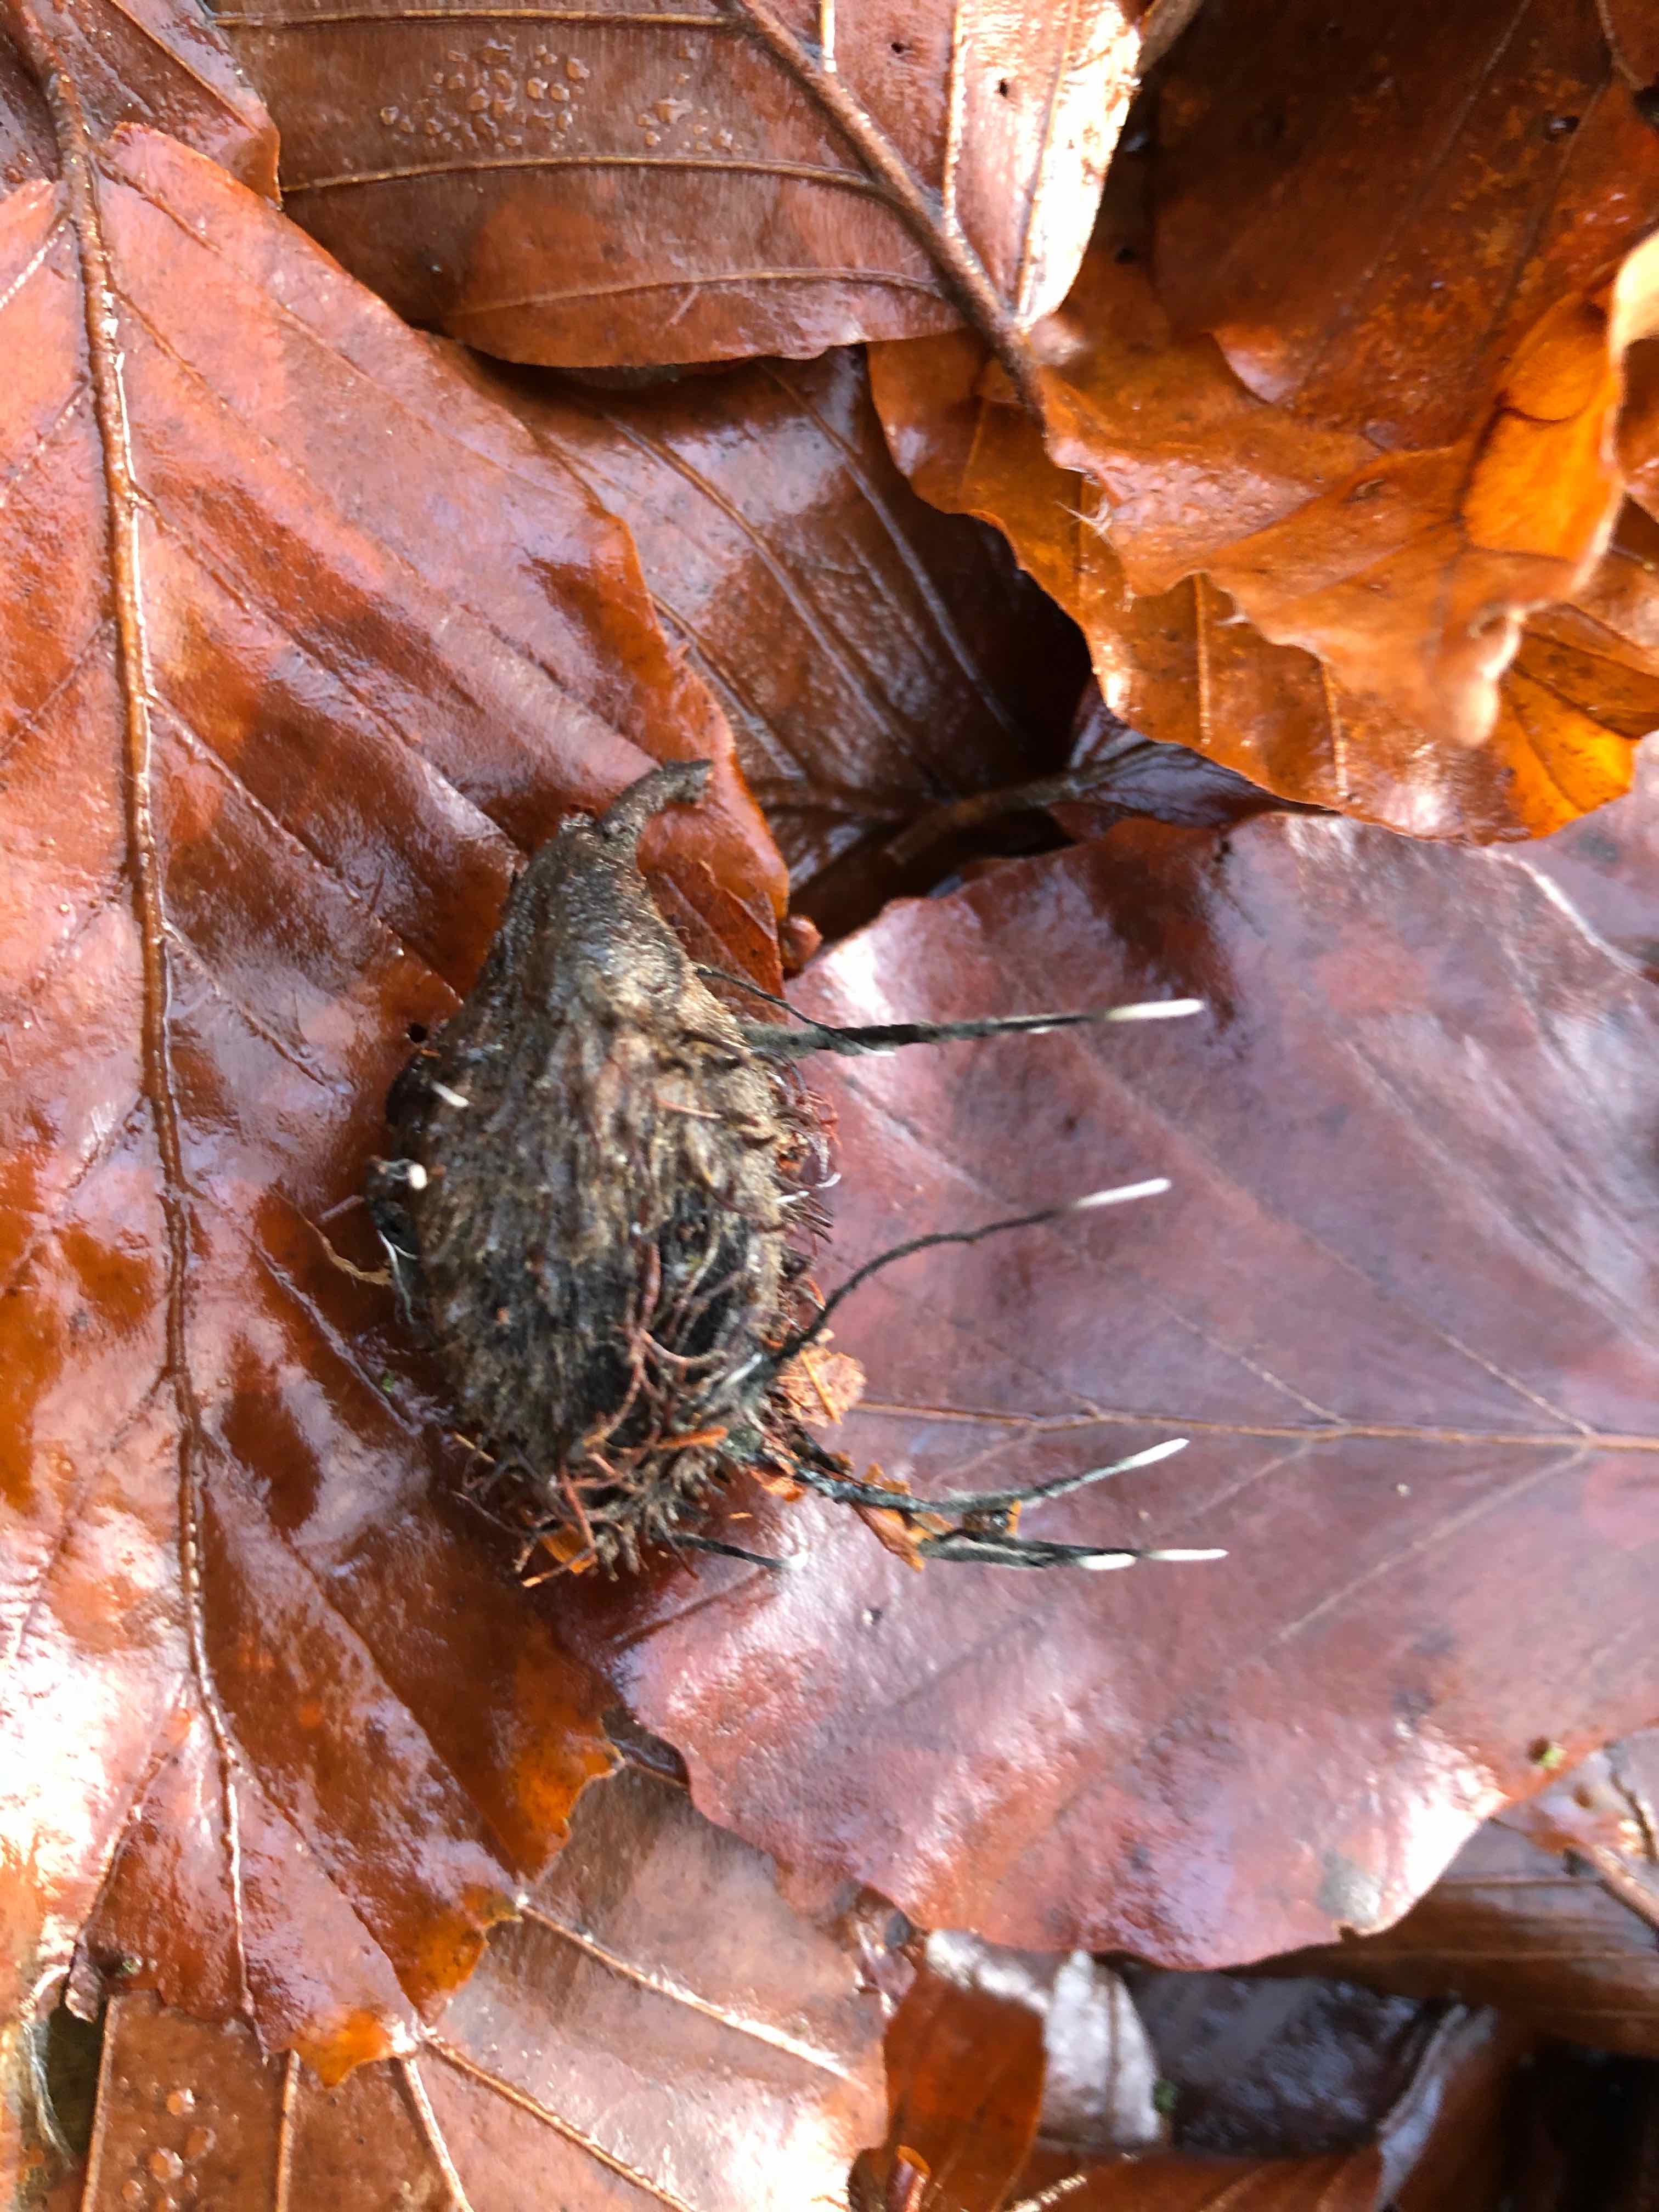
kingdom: Fungi
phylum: Ascomycota
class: Sordariomycetes
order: Xylariales
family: Xylariaceae
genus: Xylaria
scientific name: Xylaria carpophila
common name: bogskål-stødsvamp
